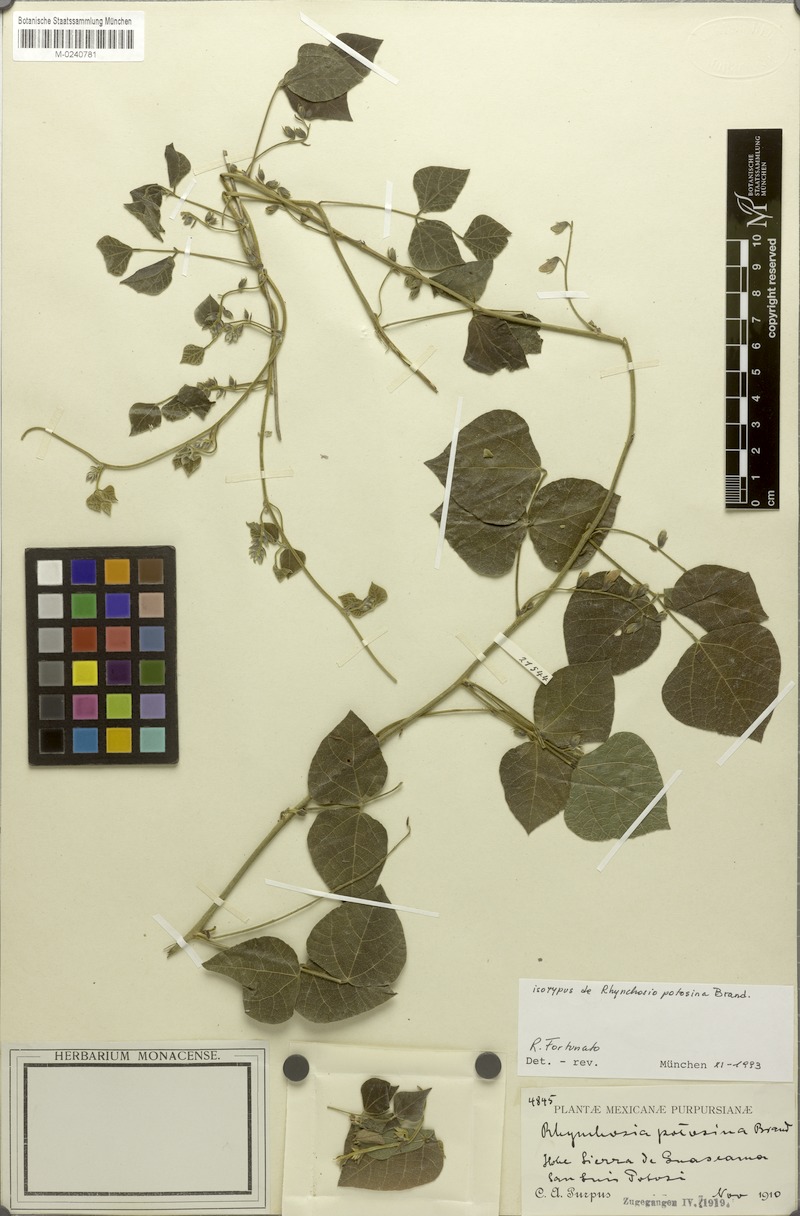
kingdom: Plantae
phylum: Tracheophyta
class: Magnoliopsida
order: Fabales
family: Fabaceae
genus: Rhynchosia
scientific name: Rhynchosia potosina
